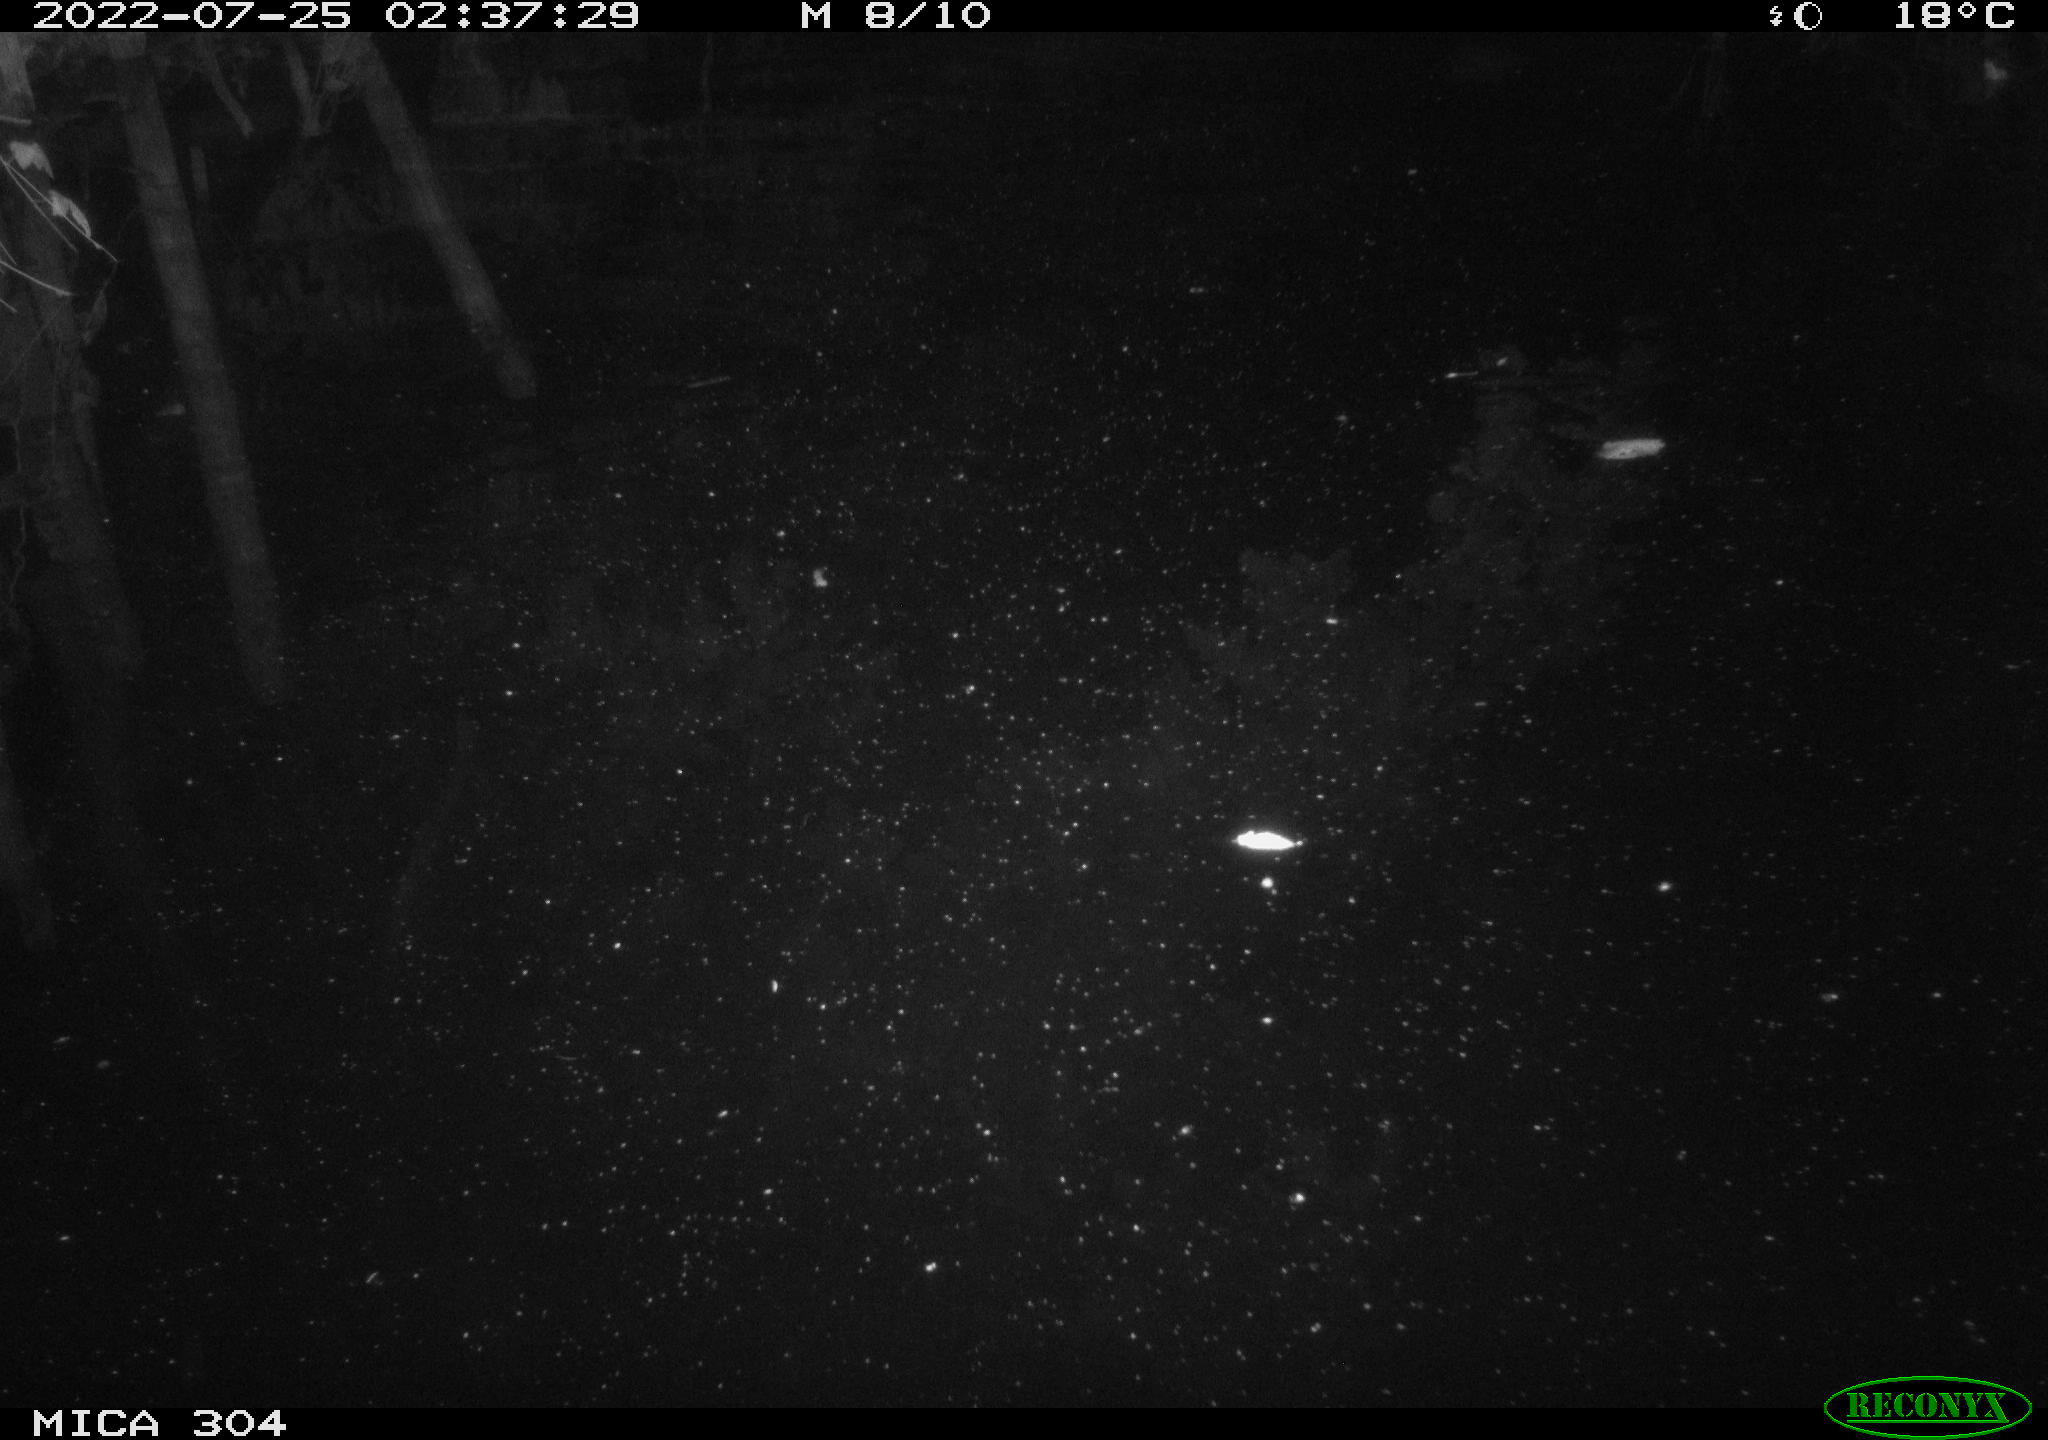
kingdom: Animalia
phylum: Chordata
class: Mammalia
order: Rodentia
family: Muridae
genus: Rattus
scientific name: Rattus norvegicus
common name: Brown rat
